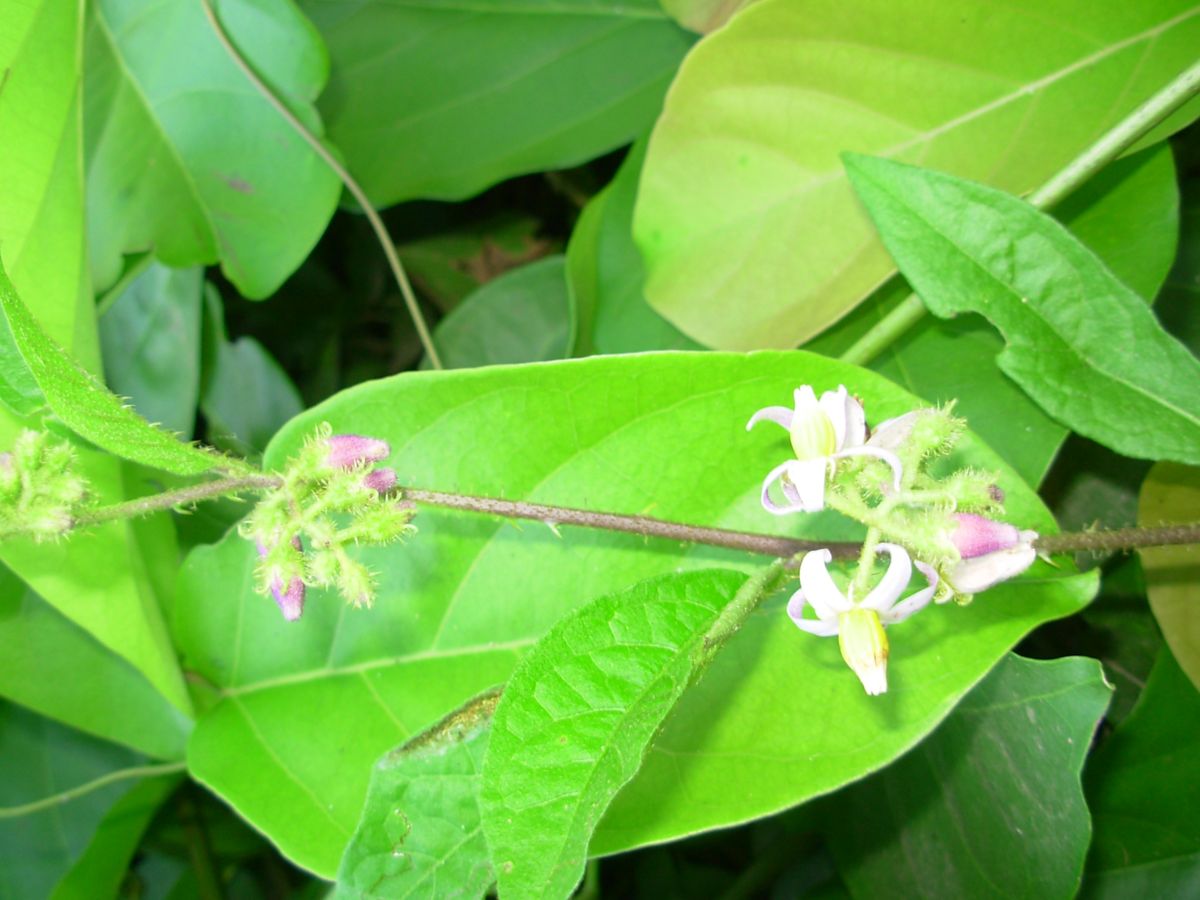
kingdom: Plantae
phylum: Tracheophyta
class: Magnoliopsida
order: Solanales
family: Solanaceae
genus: Solanum
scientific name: Solanum volubile
